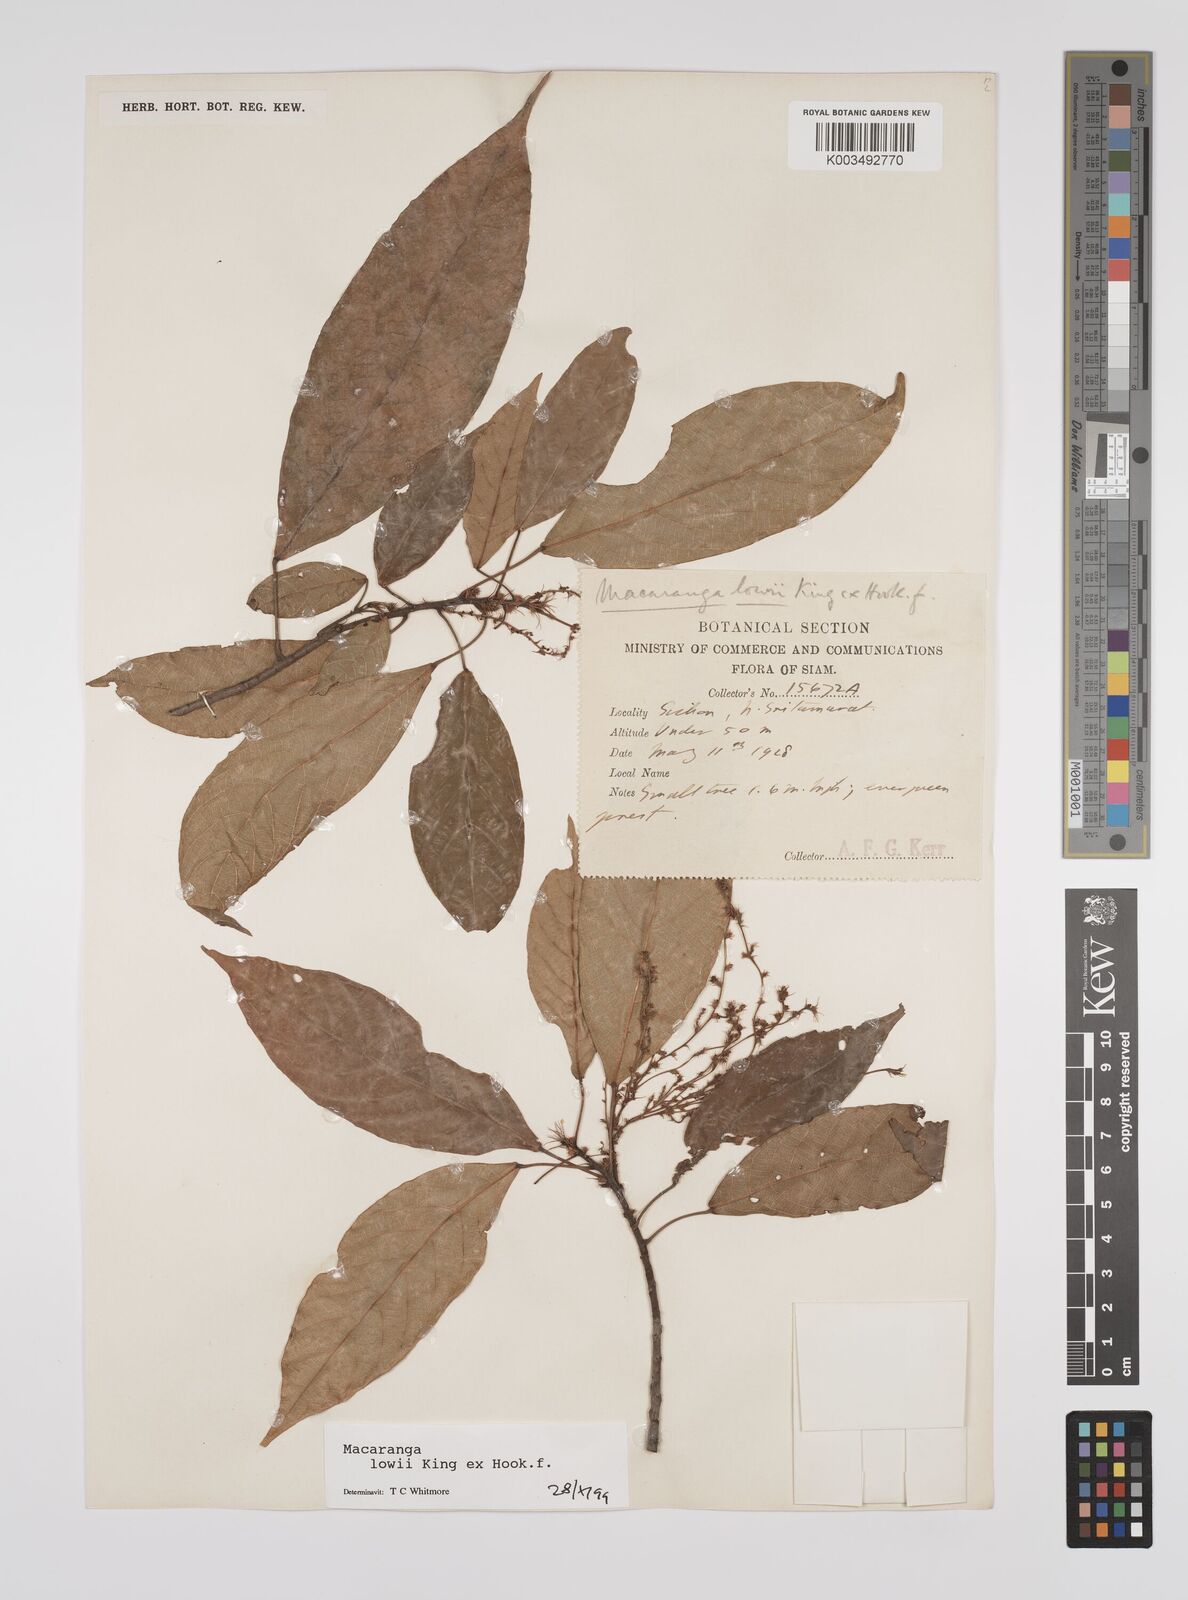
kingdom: Plantae
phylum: Tracheophyta
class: Magnoliopsida
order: Malpighiales
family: Euphorbiaceae
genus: Macaranga
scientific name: Macaranga lowii
